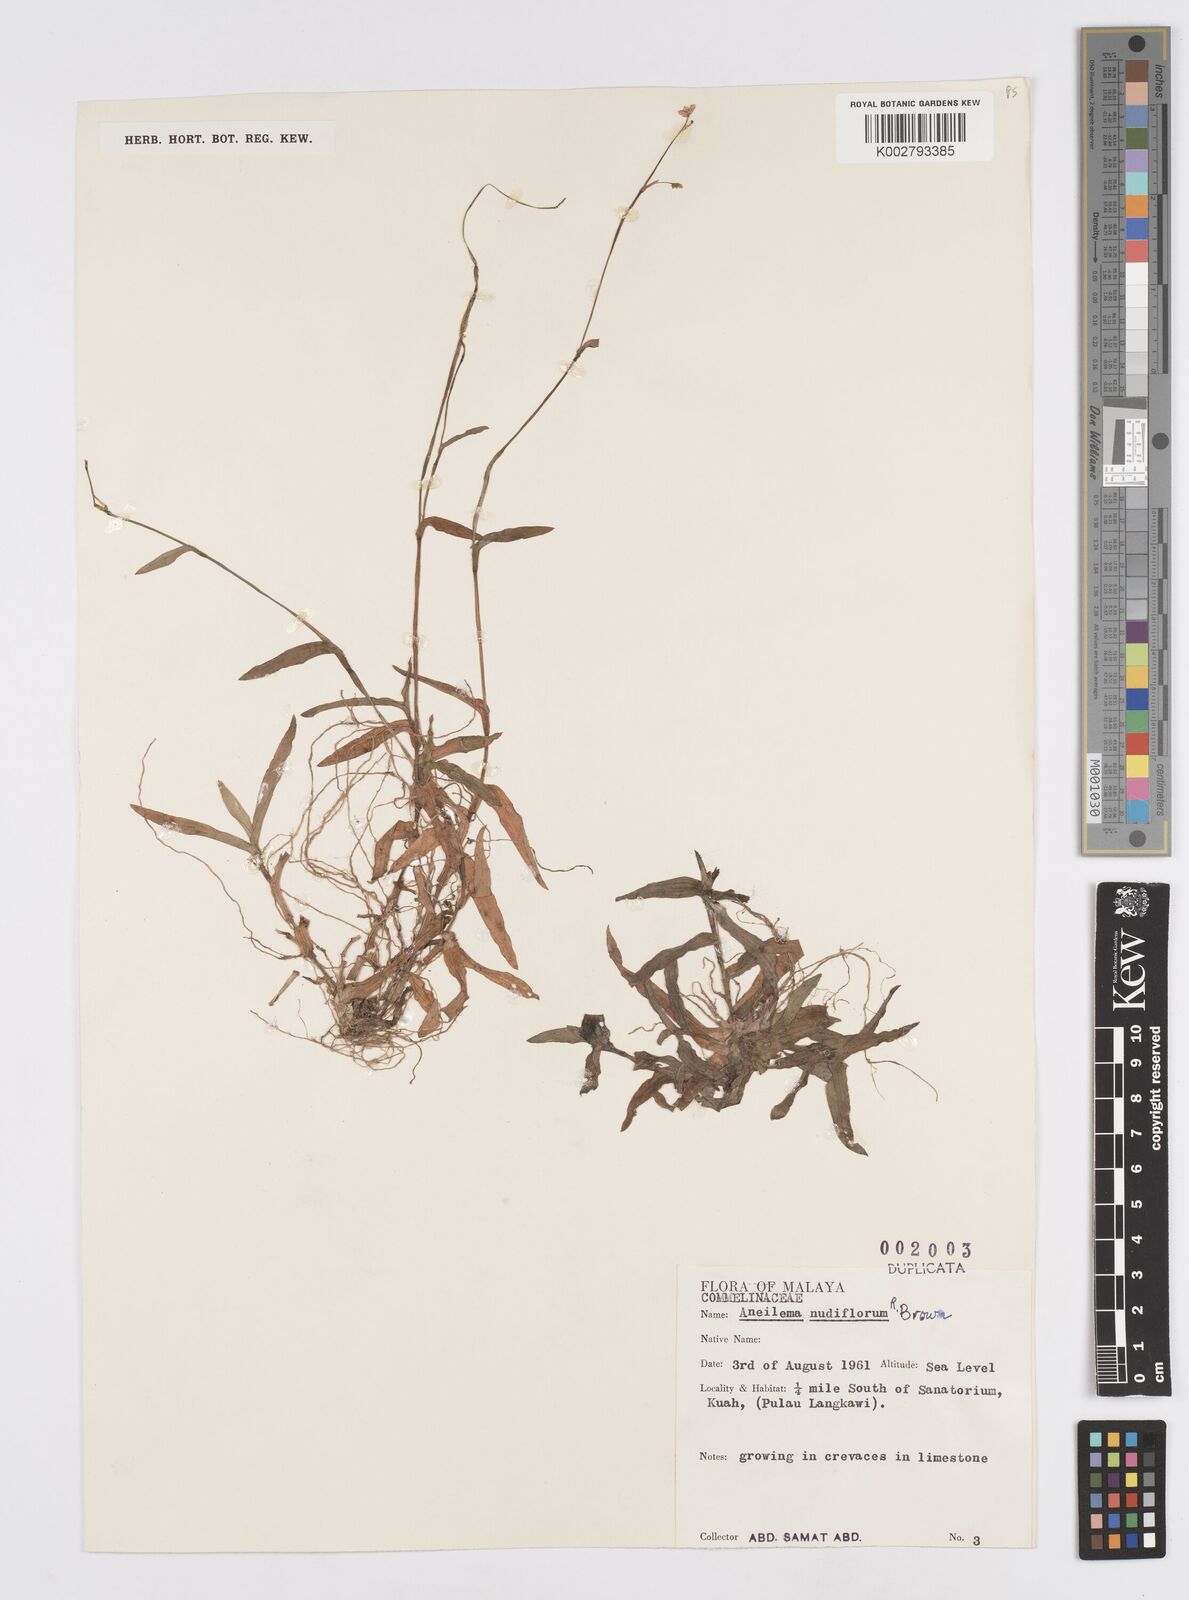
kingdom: Plantae
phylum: Tracheophyta
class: Liliopsida
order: Commelinales
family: Commelinaceae
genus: Murdannia
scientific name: Murdannia
